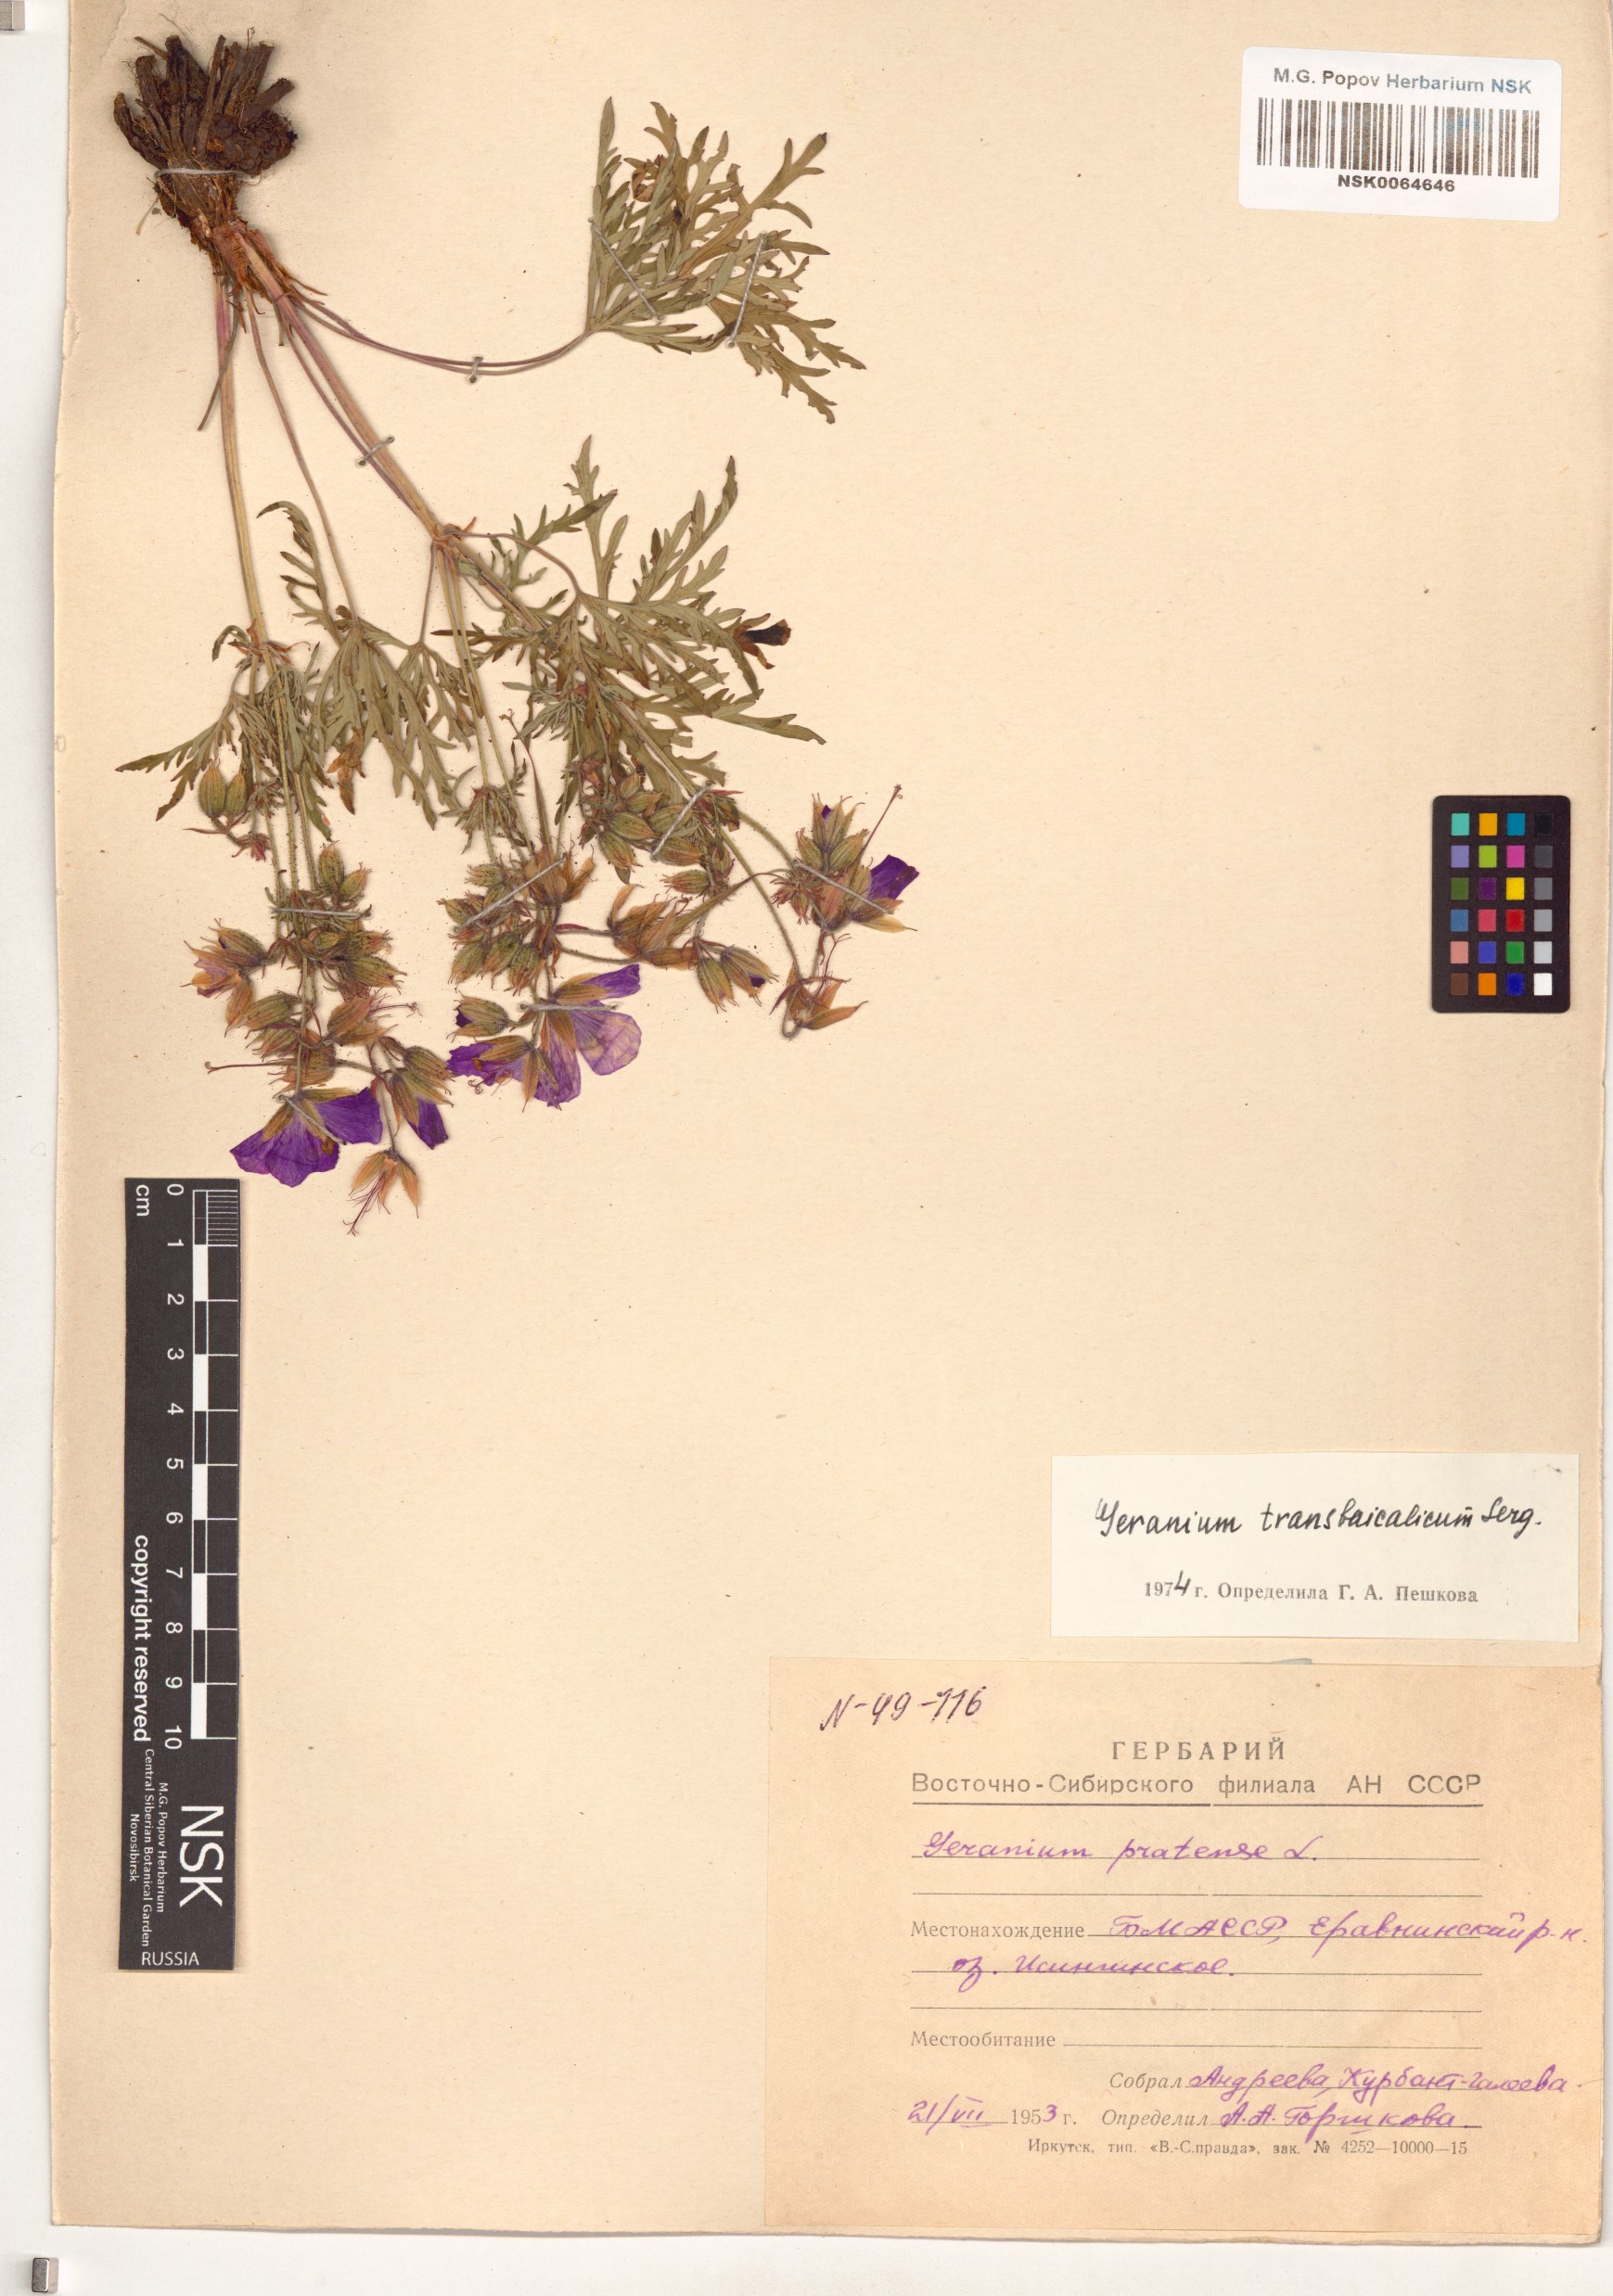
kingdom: Plantae
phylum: Tracheophyta
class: Magnoliopsida
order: Geraniales
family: Geraniaceae
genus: Geranium
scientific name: Geranium pratense
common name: Meadow crane's-bill
